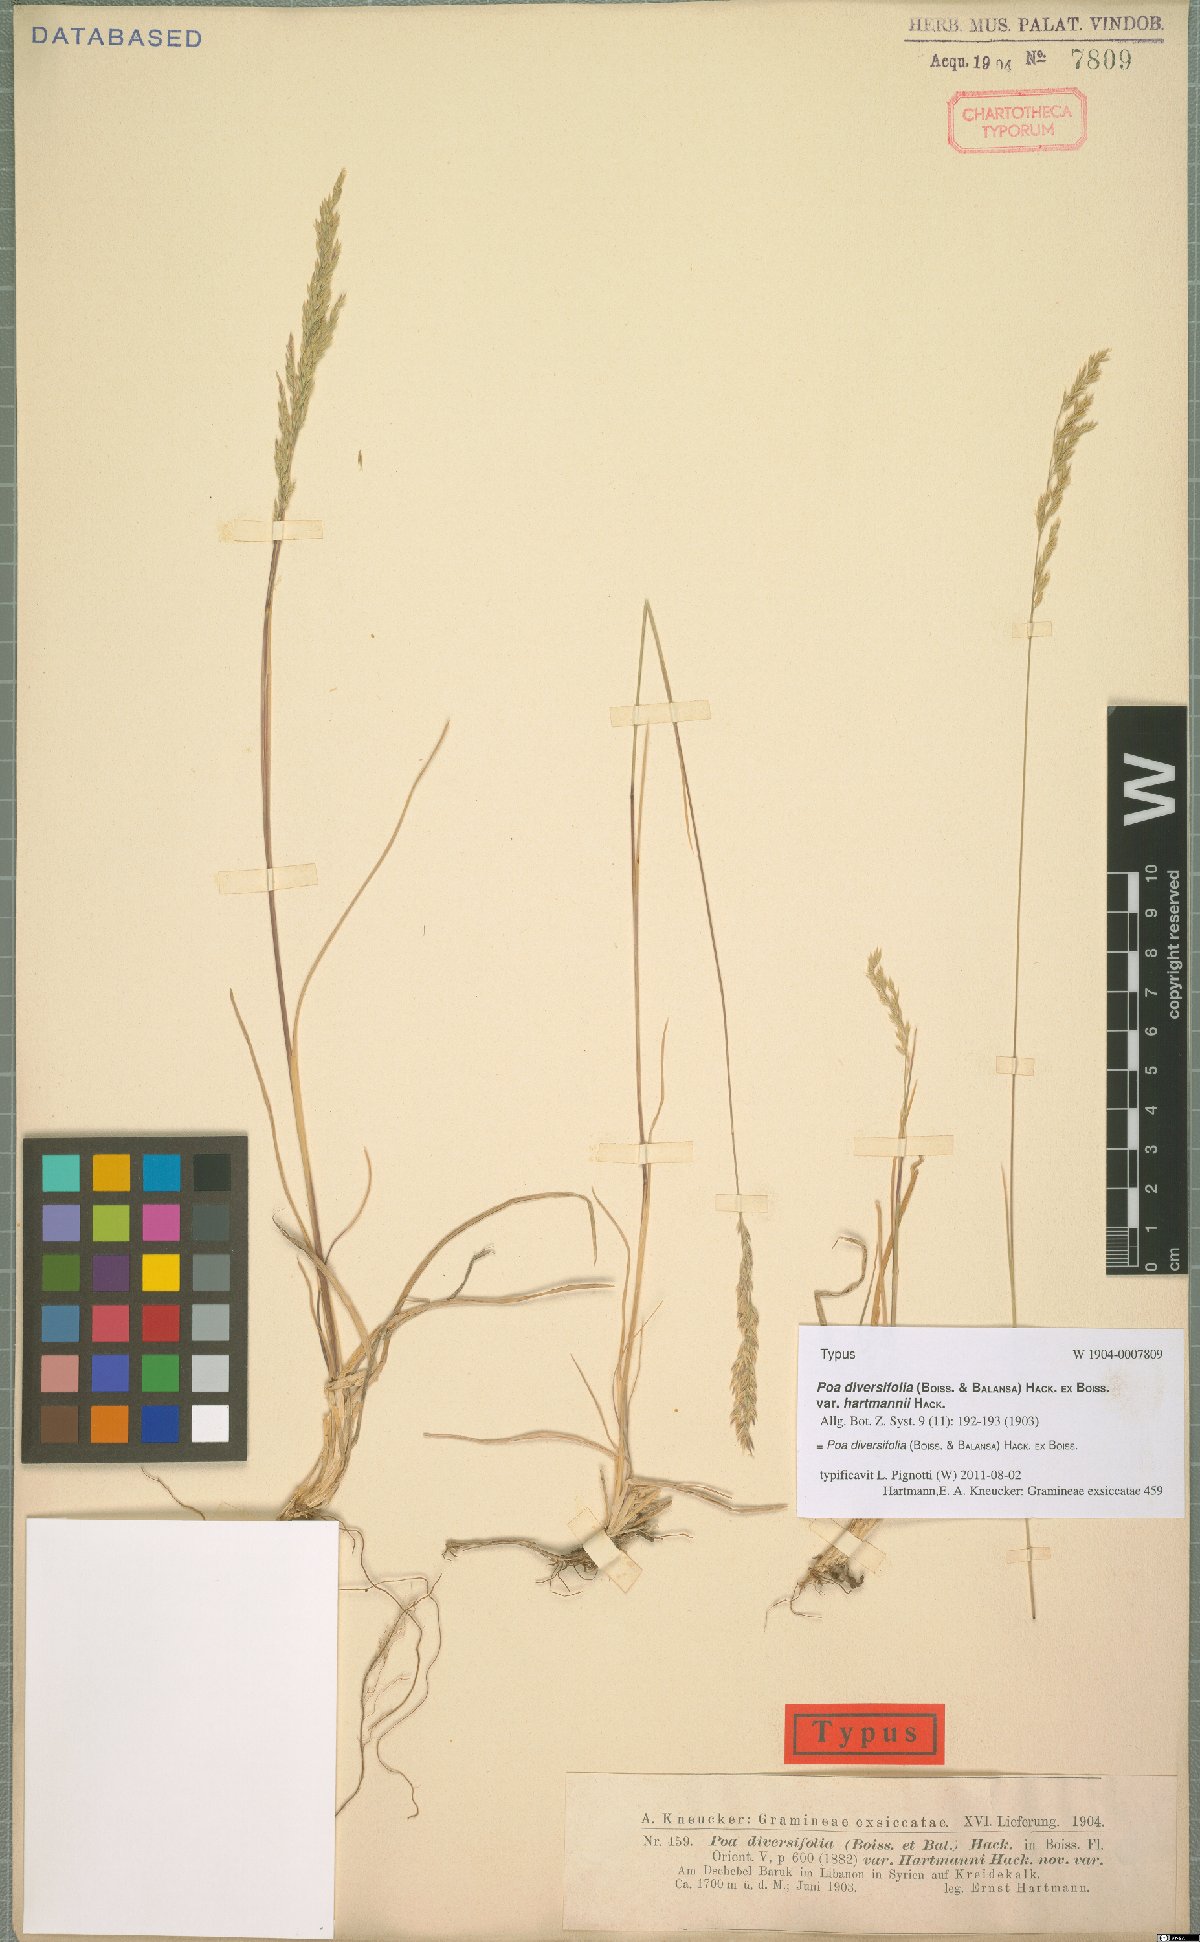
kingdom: Plantae
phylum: Tracheophyta
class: Liliopsida
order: Poales
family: Poaceae
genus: Poa
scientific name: Poa diversifolia
